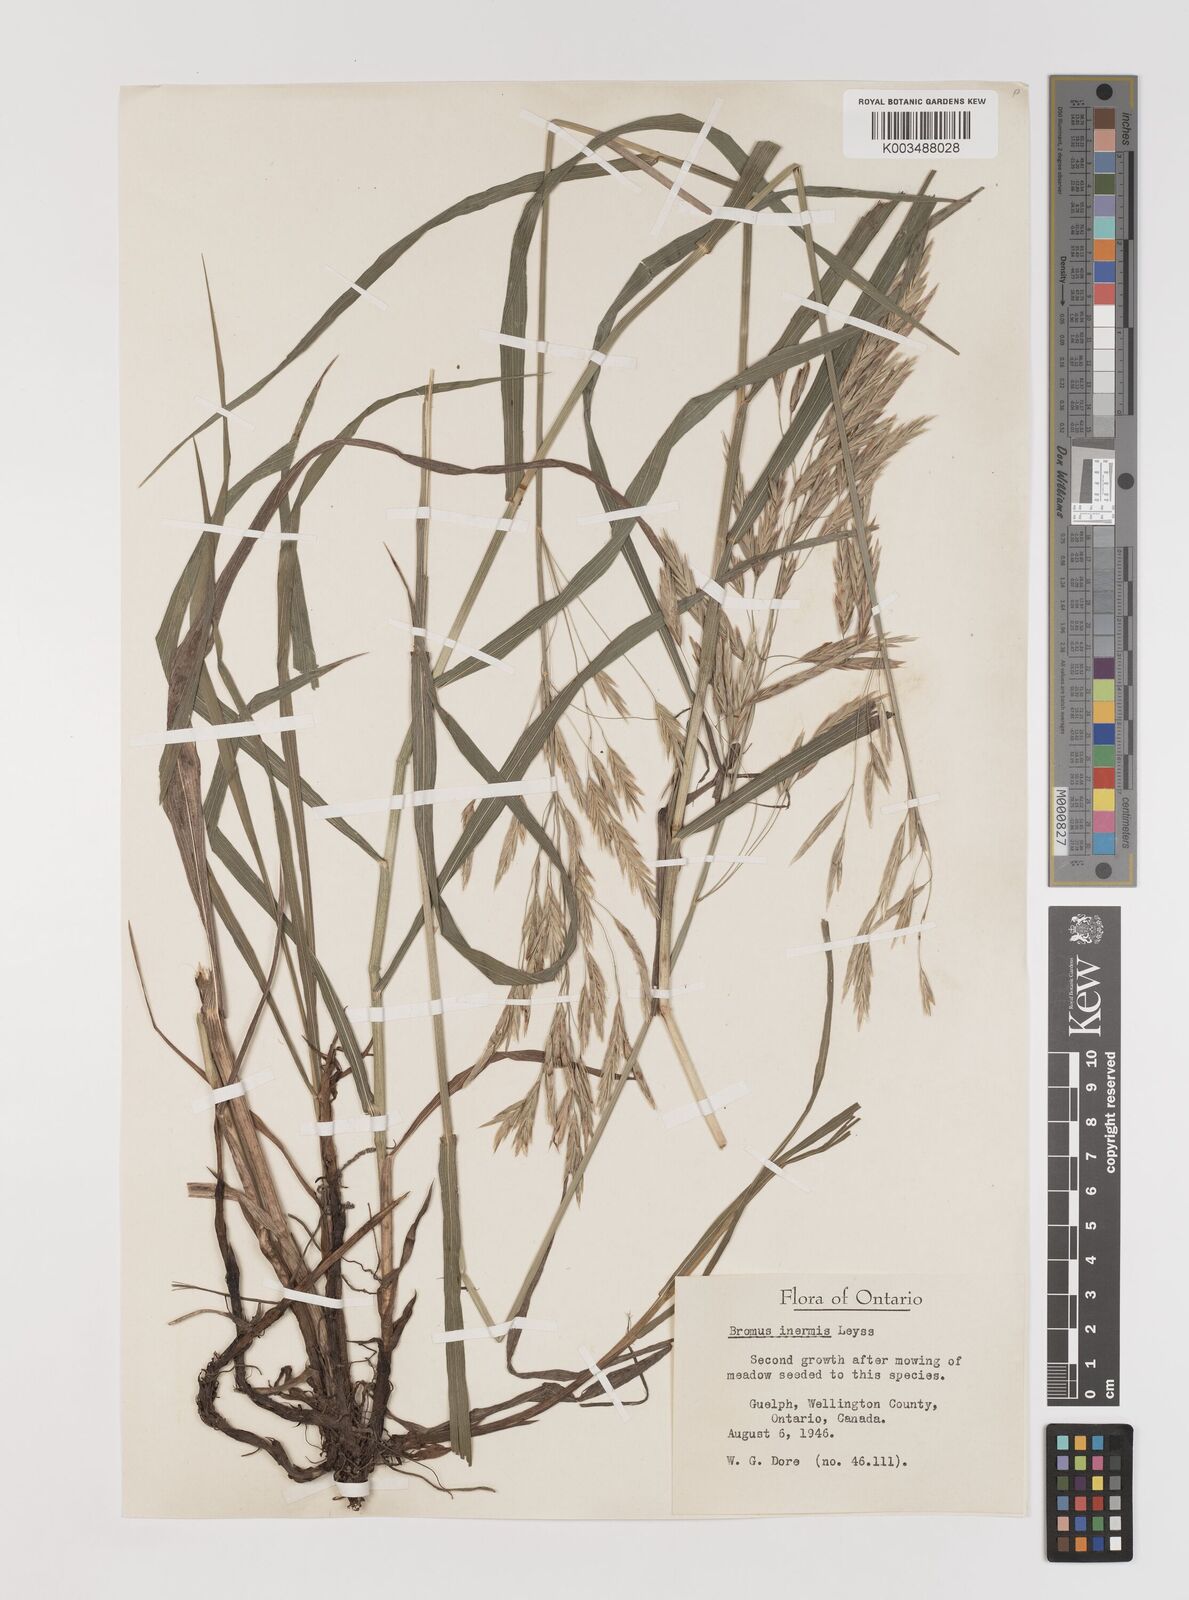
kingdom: Plantae
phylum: Tracheophyta
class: Liliopsida
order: Poales
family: Poaceae
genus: Bromus
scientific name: Bromus inermis
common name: Smooth brome
